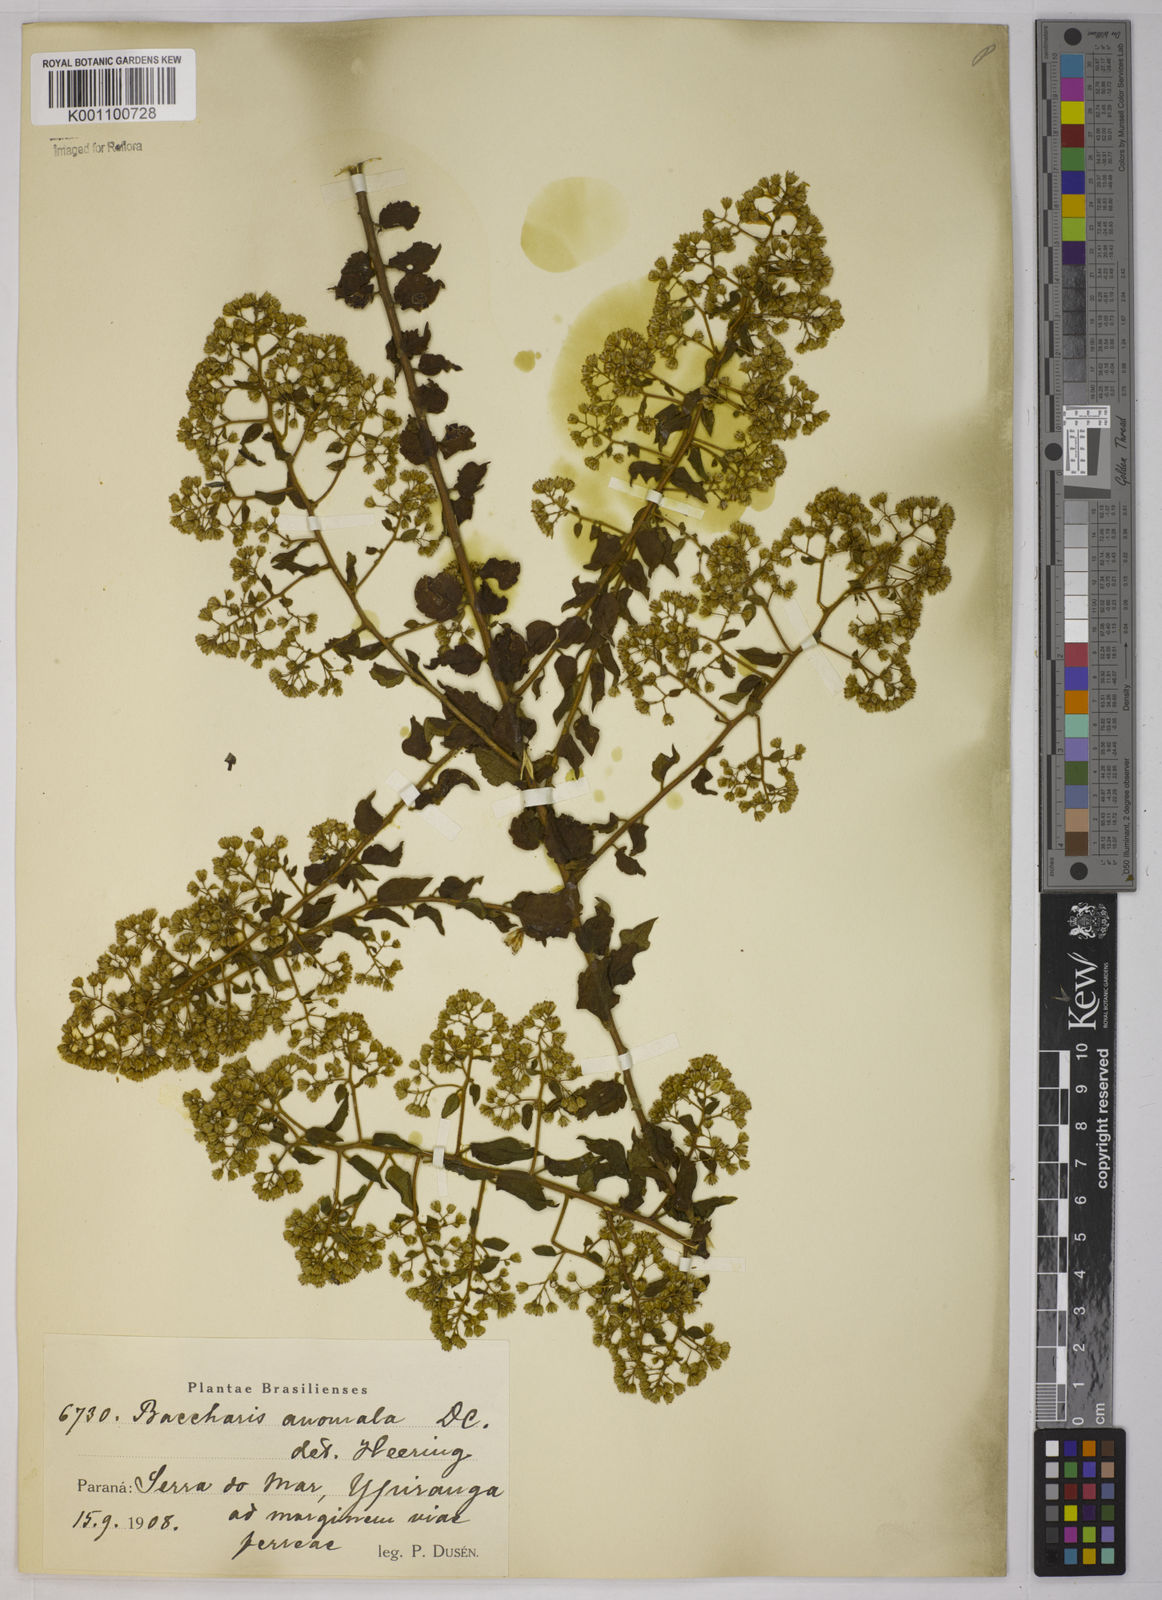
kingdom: Plantae
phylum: Tracheophyta
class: Magnoliopsida
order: Asterales
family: Asteraceae
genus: Baccharis
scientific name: Baccharis anomala
